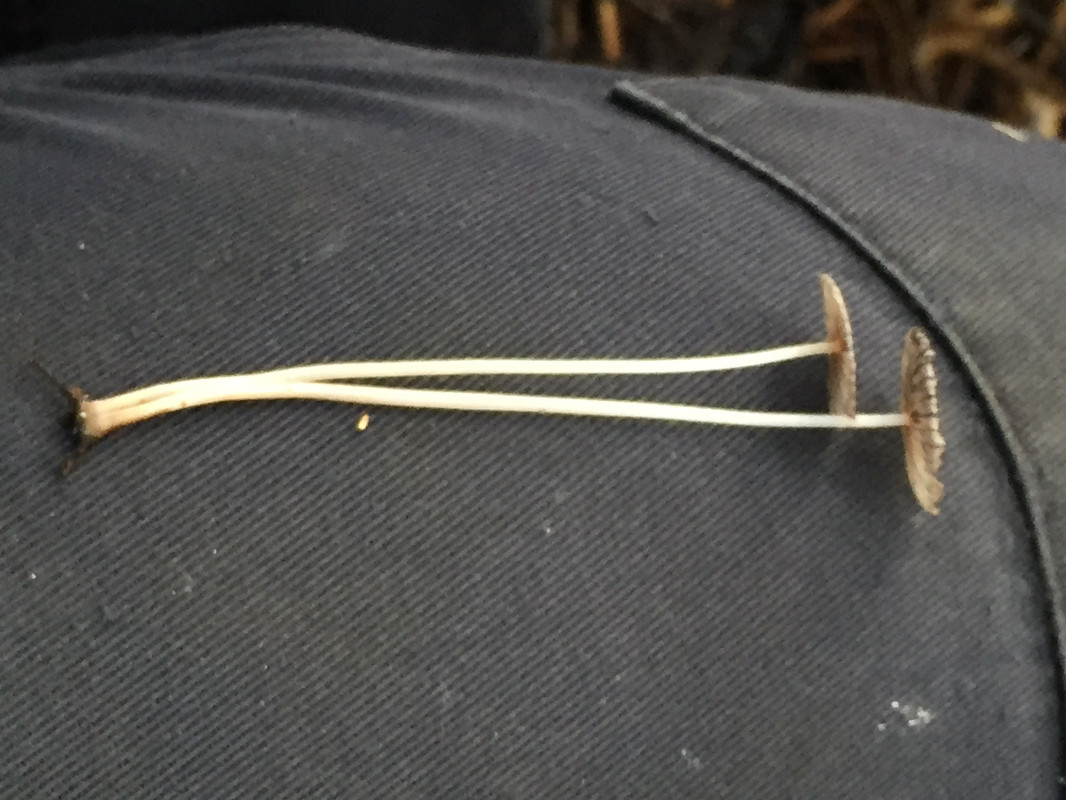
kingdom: Fungi
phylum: Basidiomycota
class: Agaricomycetes
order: Agaricales
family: Psathyrellaceae
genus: Coprinellus
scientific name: Coprinellus
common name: blækhat
